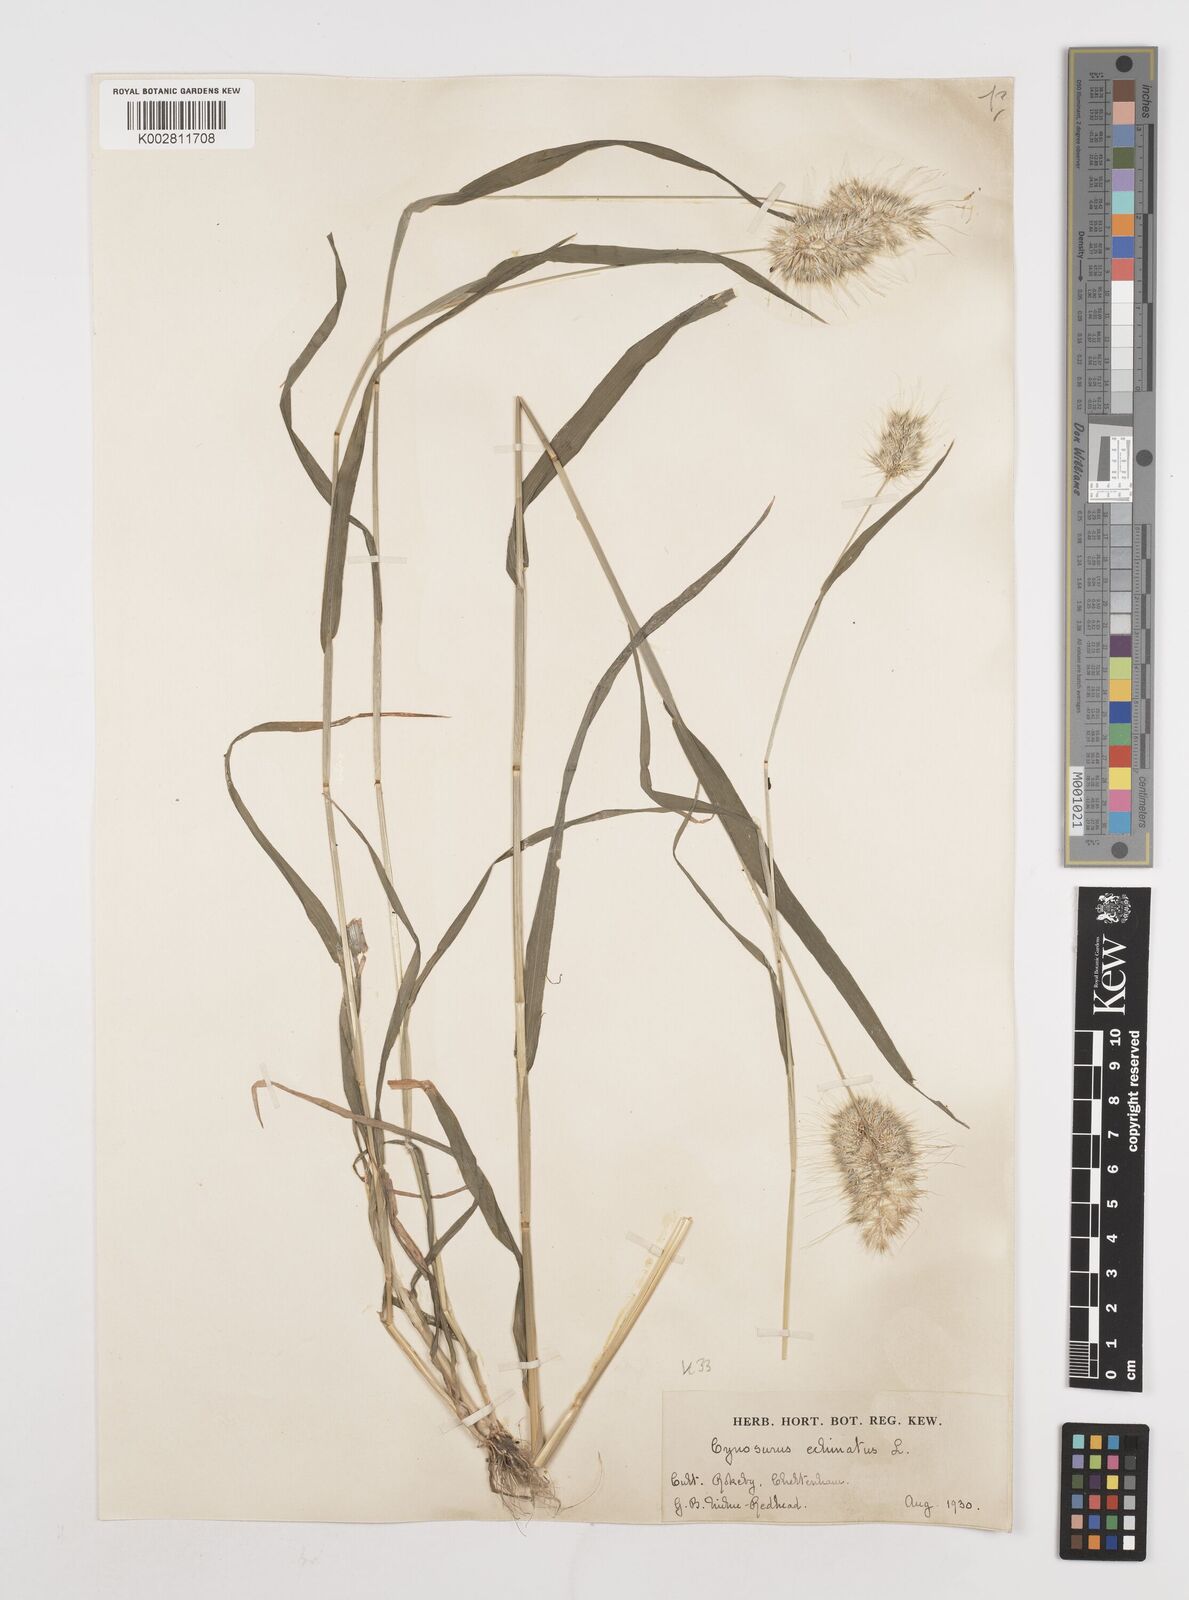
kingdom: Plantae
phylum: Tracheophyta
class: Liliopsida
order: Poales
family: Poaceae
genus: Cynosurus
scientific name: Cynosurus echinatus
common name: Rough dog's-tail
